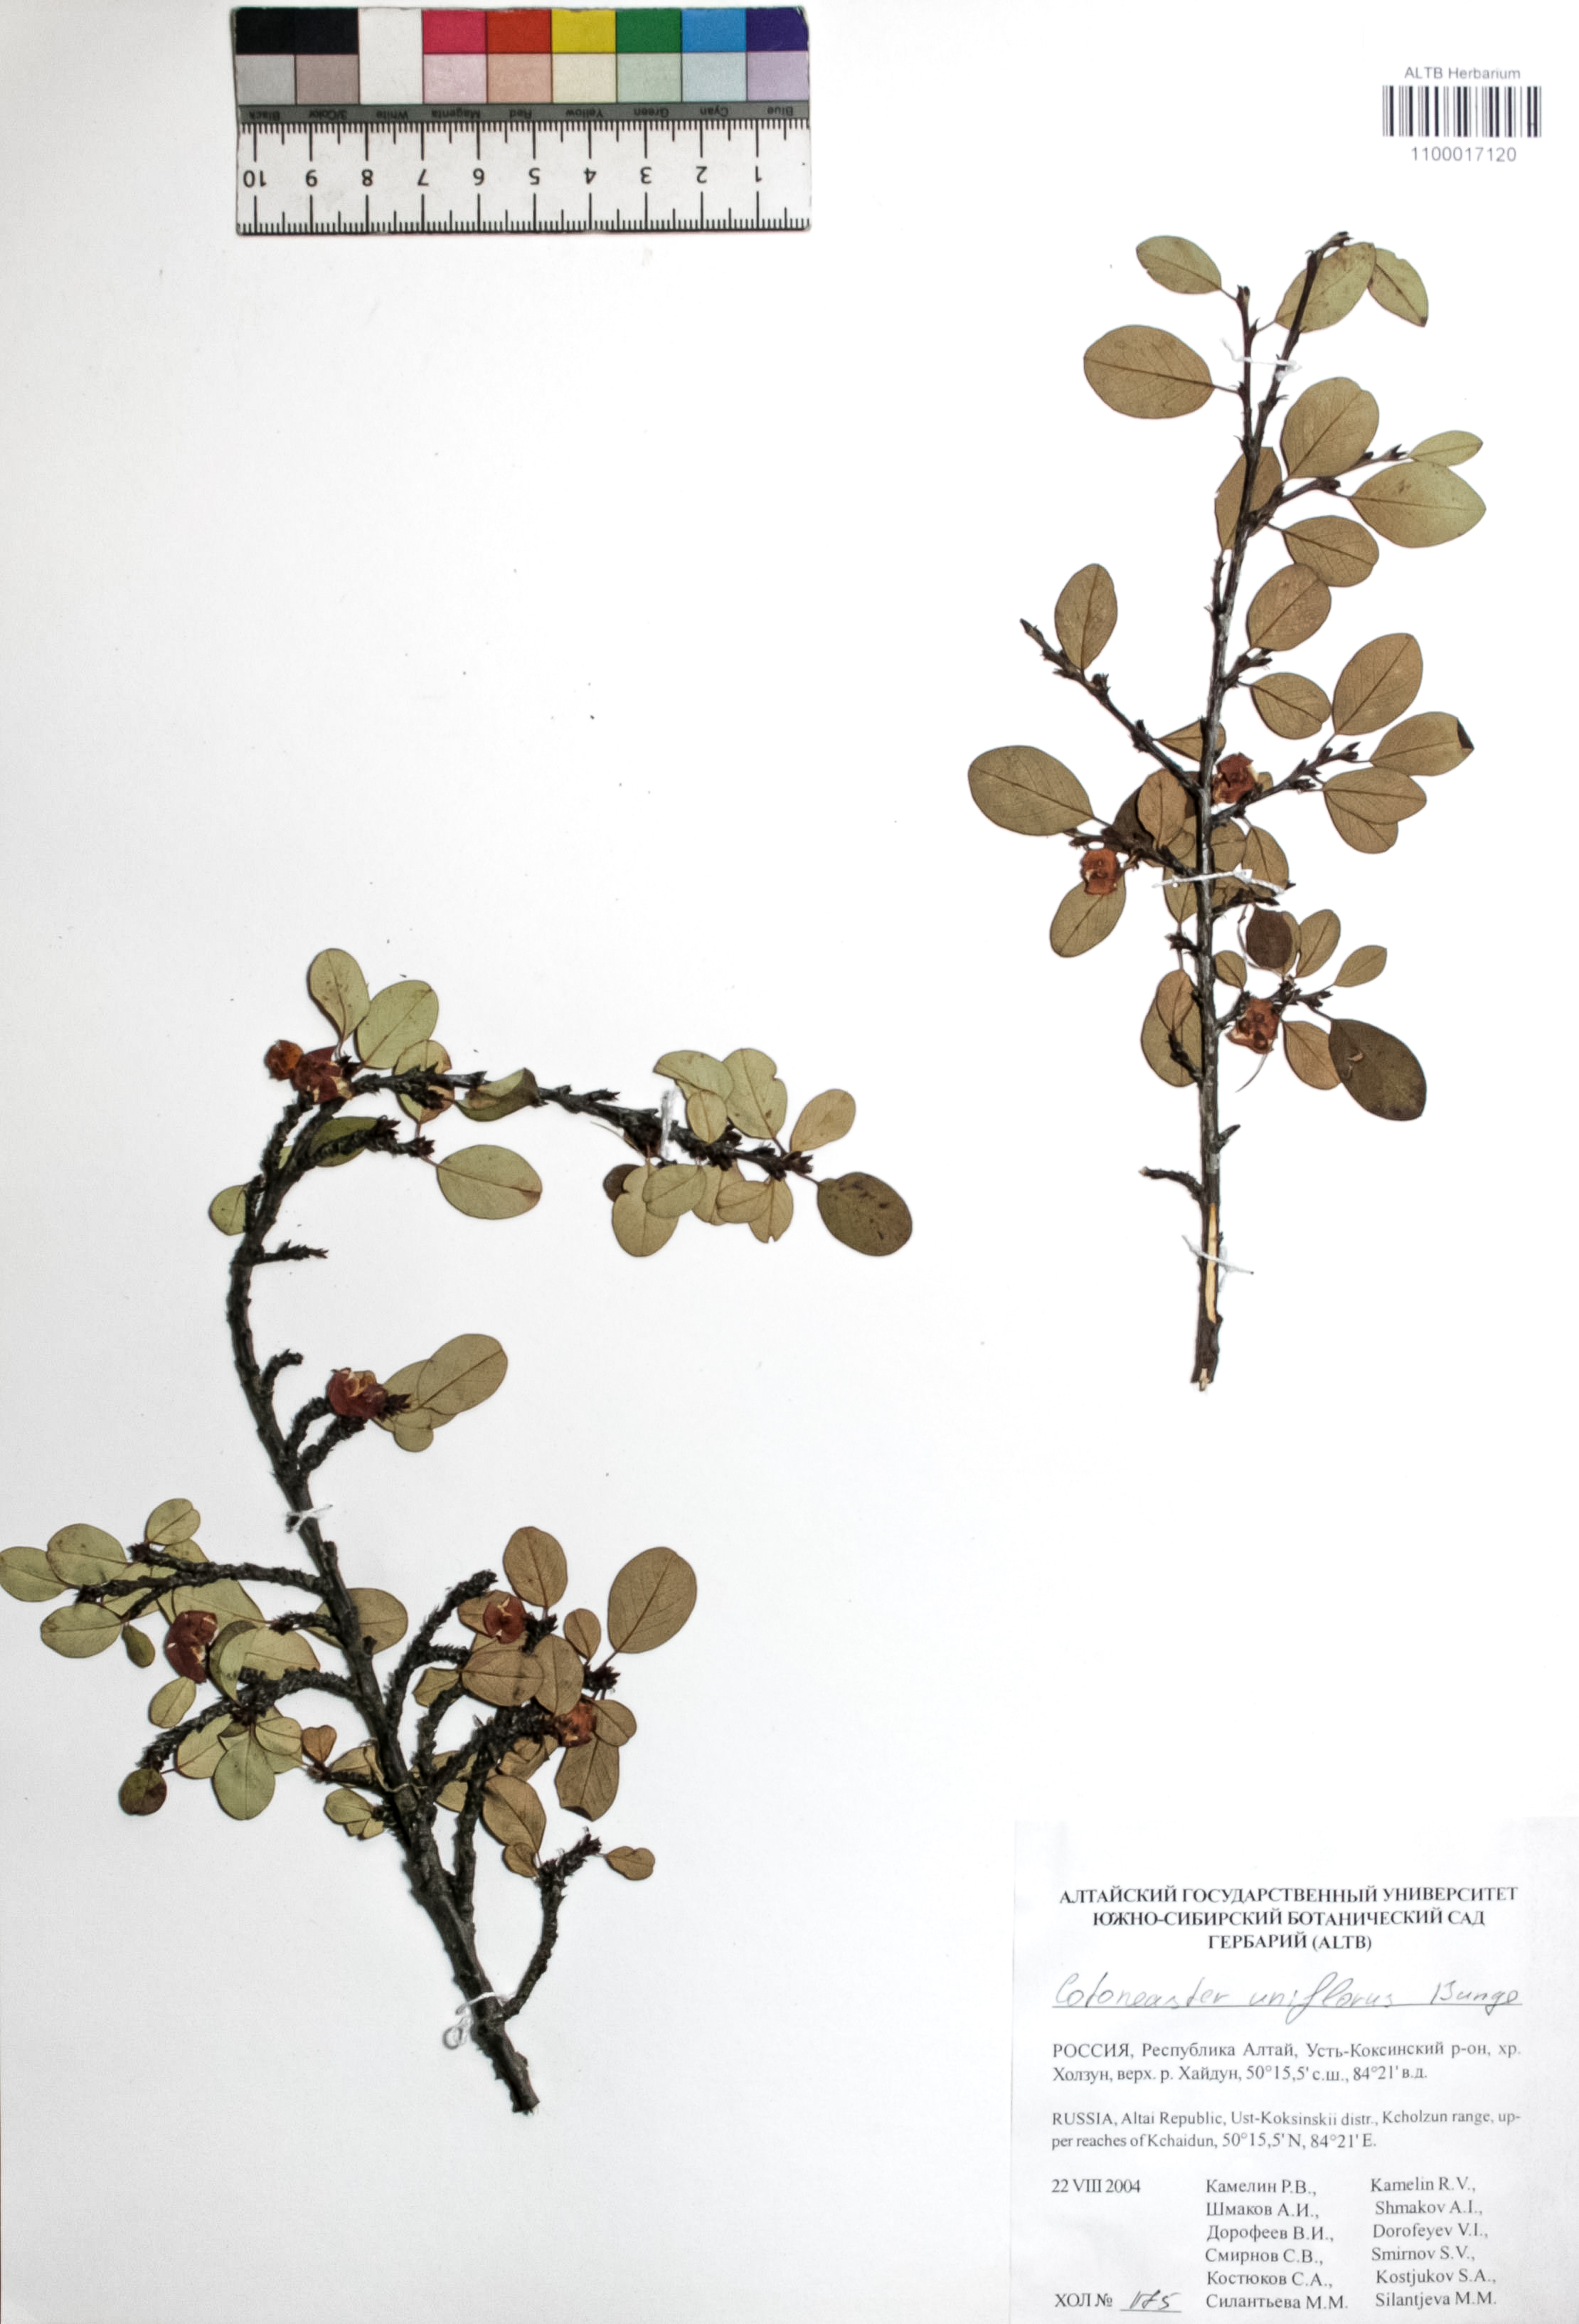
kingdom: Plantae
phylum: Tracheophyta
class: Magnoliopsida
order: Rosales
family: Rosaceae
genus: Cotoneaster
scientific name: Cotoneaster uniflorus
